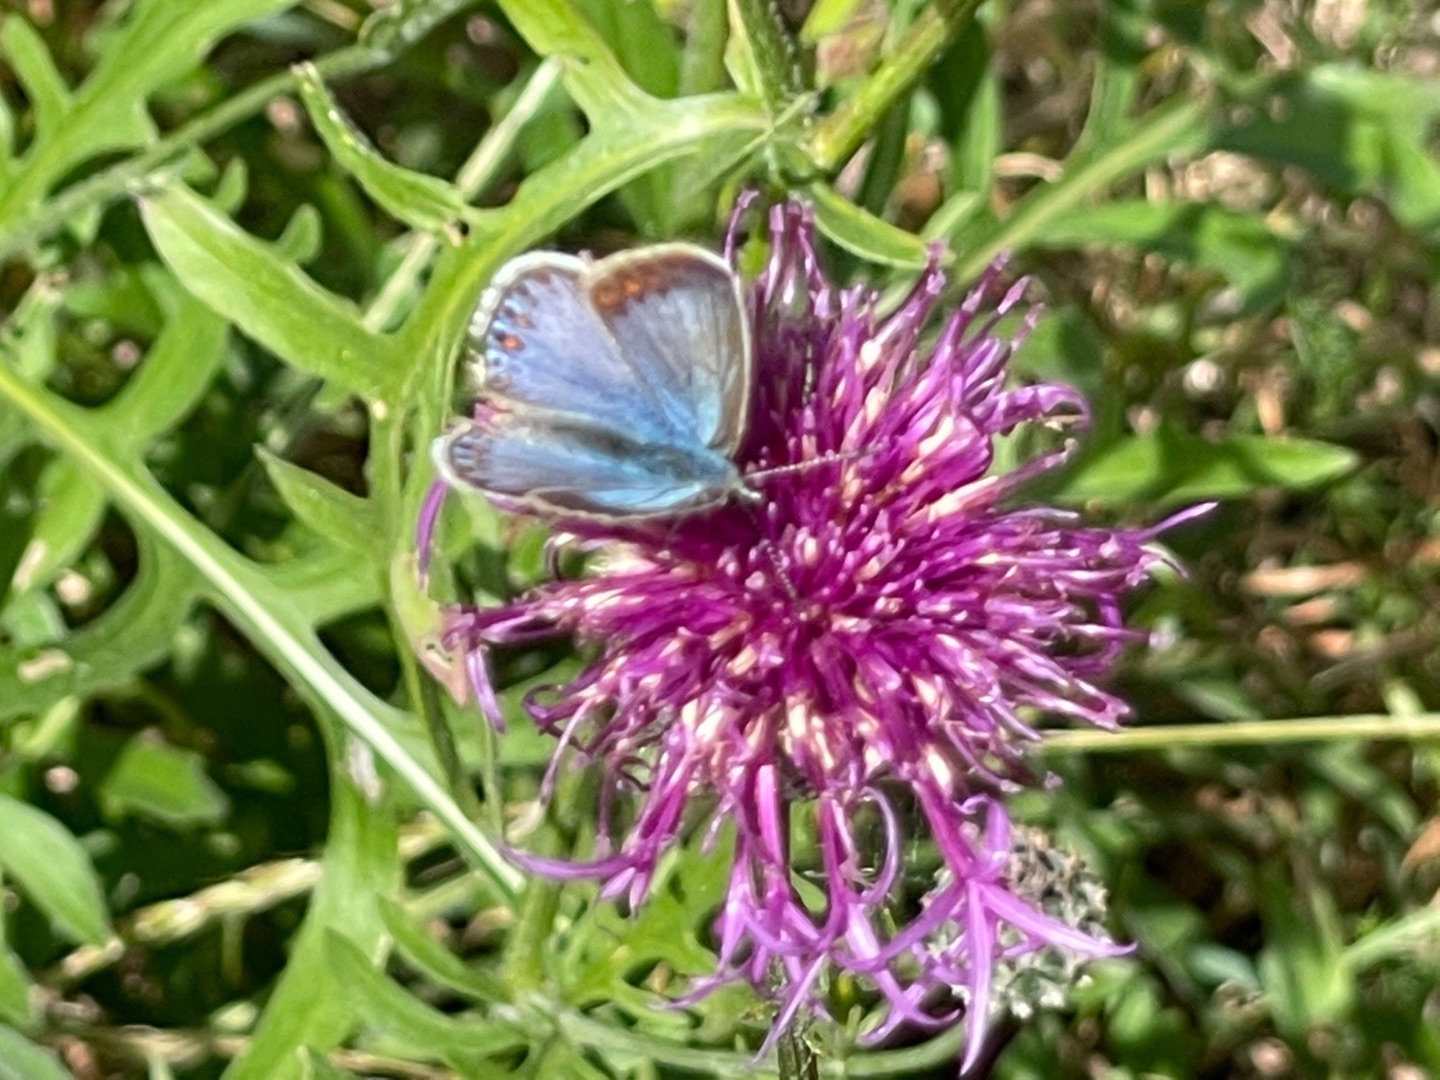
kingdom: Animalia
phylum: Arthropoda
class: Insecta
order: Lepidoptera
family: Lycaenidae
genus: Polyommatus
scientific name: Polyommatus icarus
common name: Almindelig blåfugl
